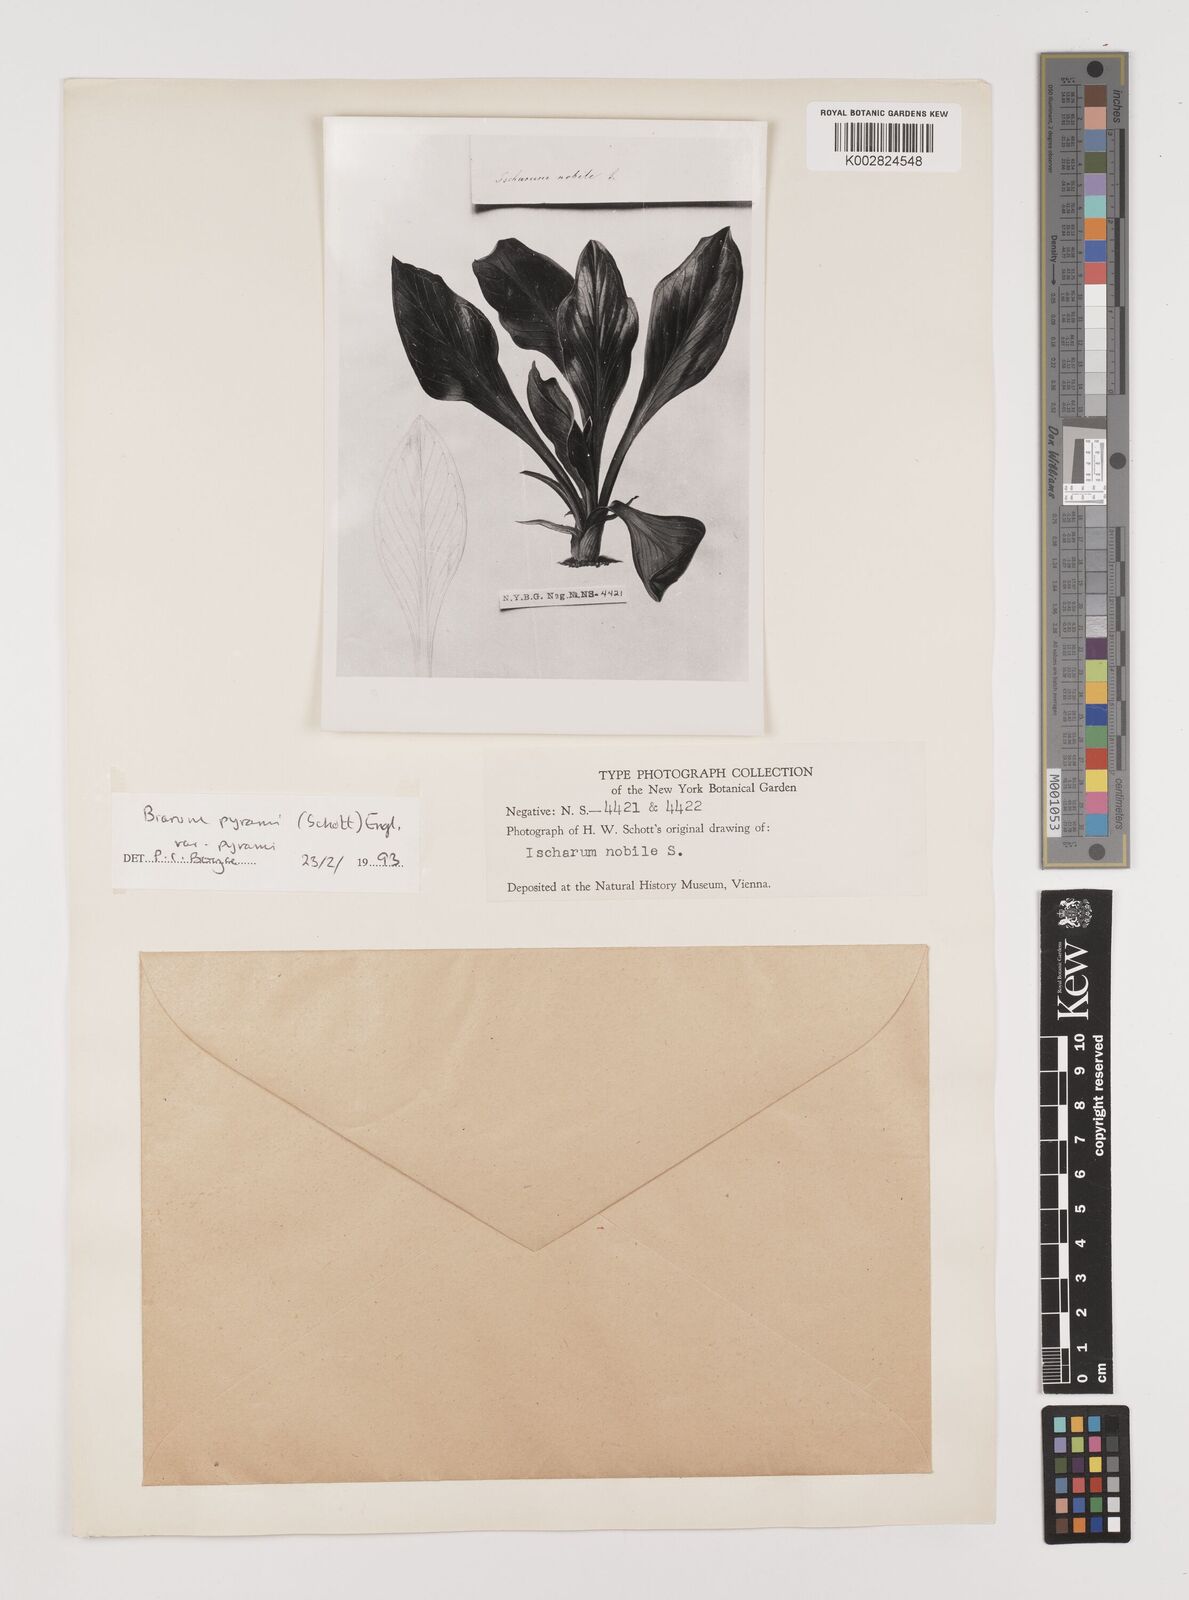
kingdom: Plantae
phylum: Tracheophyta
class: Liliopsida
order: Alismatales
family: Araceae
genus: Biarum
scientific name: Biarum pyrami
